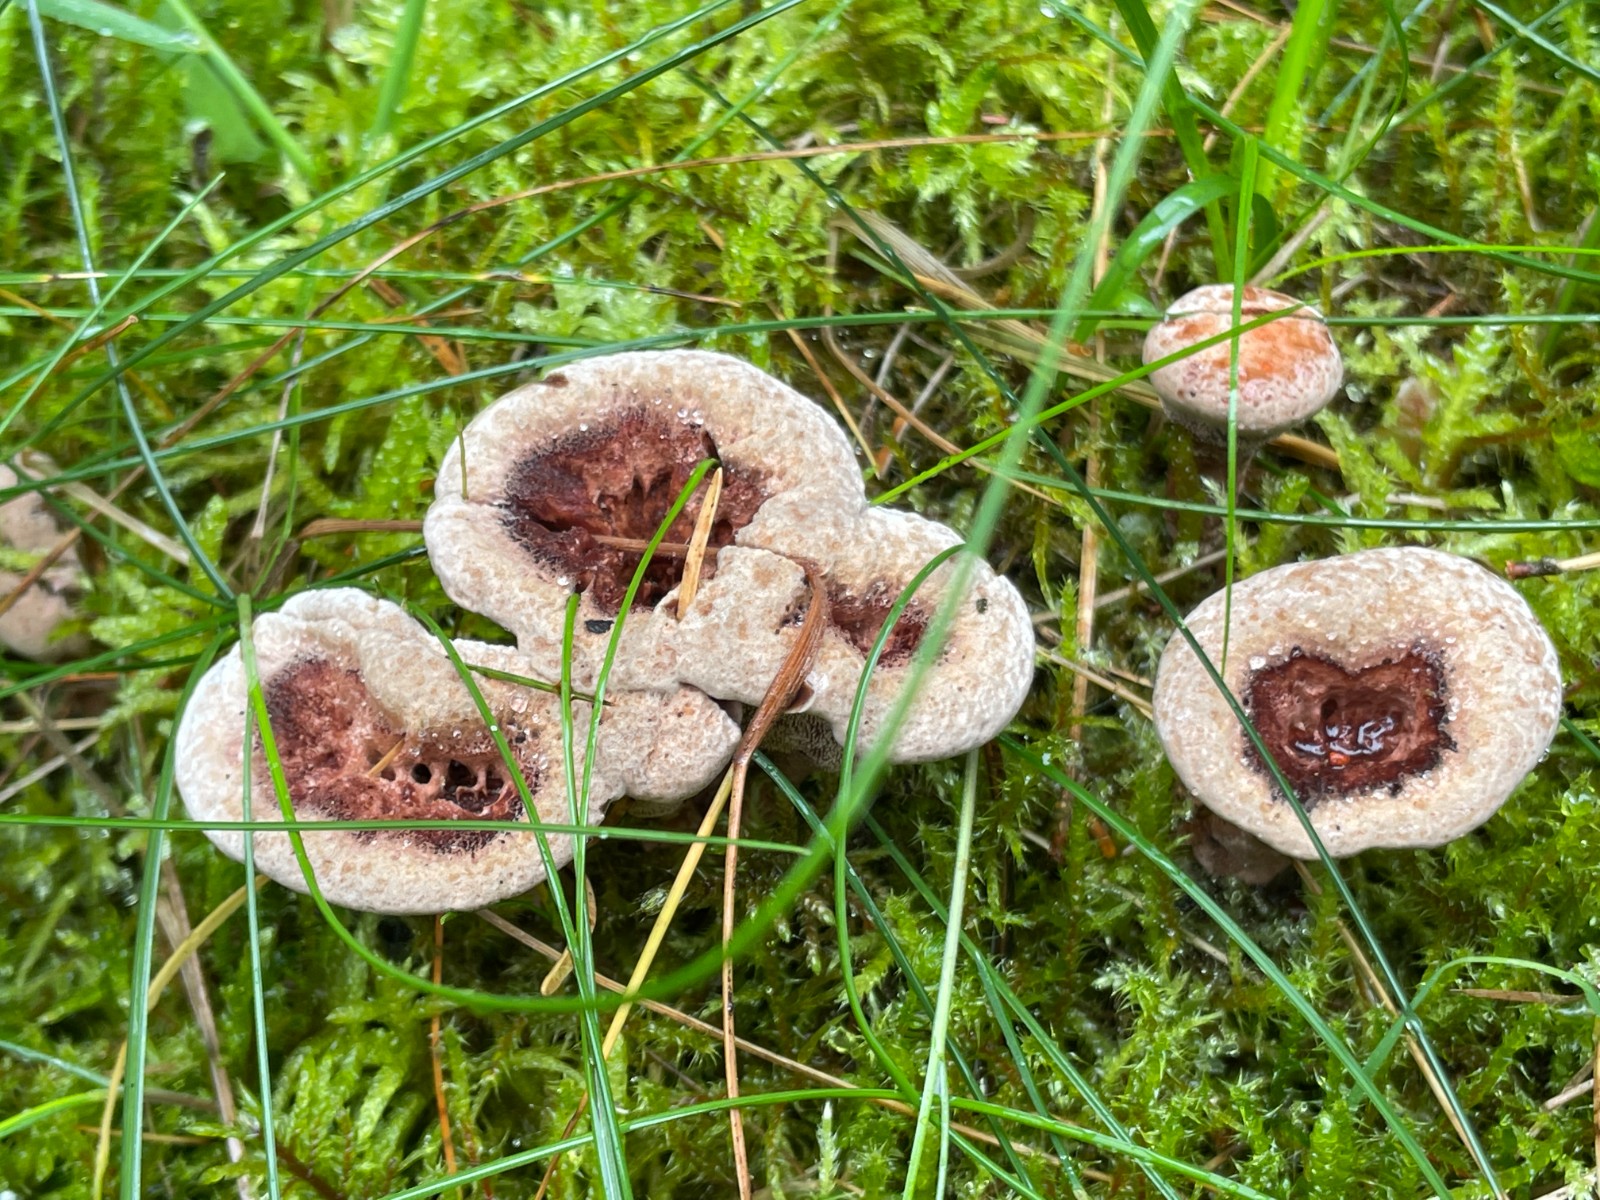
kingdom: Fungi
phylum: Basidiomycota
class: Agaricomycetes
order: Thelephorales
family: Bankeraceae
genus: Hydnellum
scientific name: Hydnellum concrescens
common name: Zoned tooth
